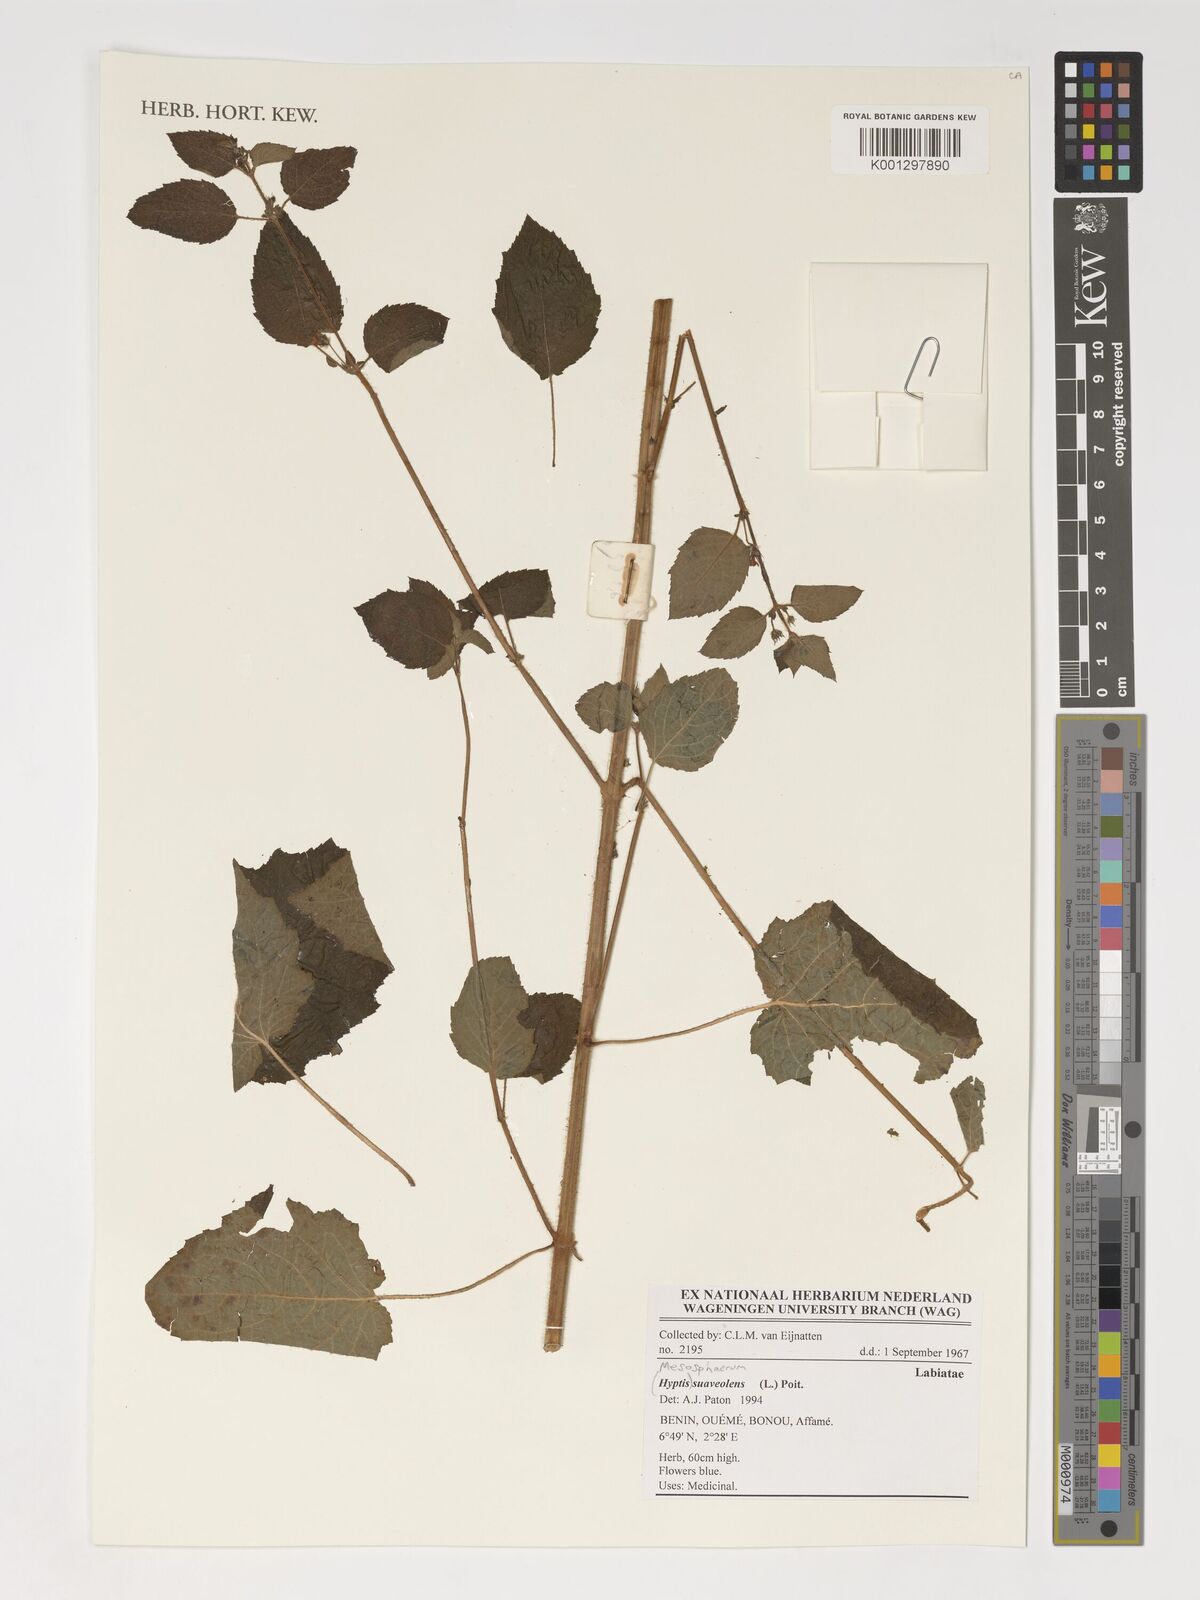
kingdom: Plantae
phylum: Tracheophyta
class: Magnoliopsida
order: Lamiales
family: Lamiaceae
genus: Mesosphaerum
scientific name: Mesosphaerum suaveolens
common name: Pignut
